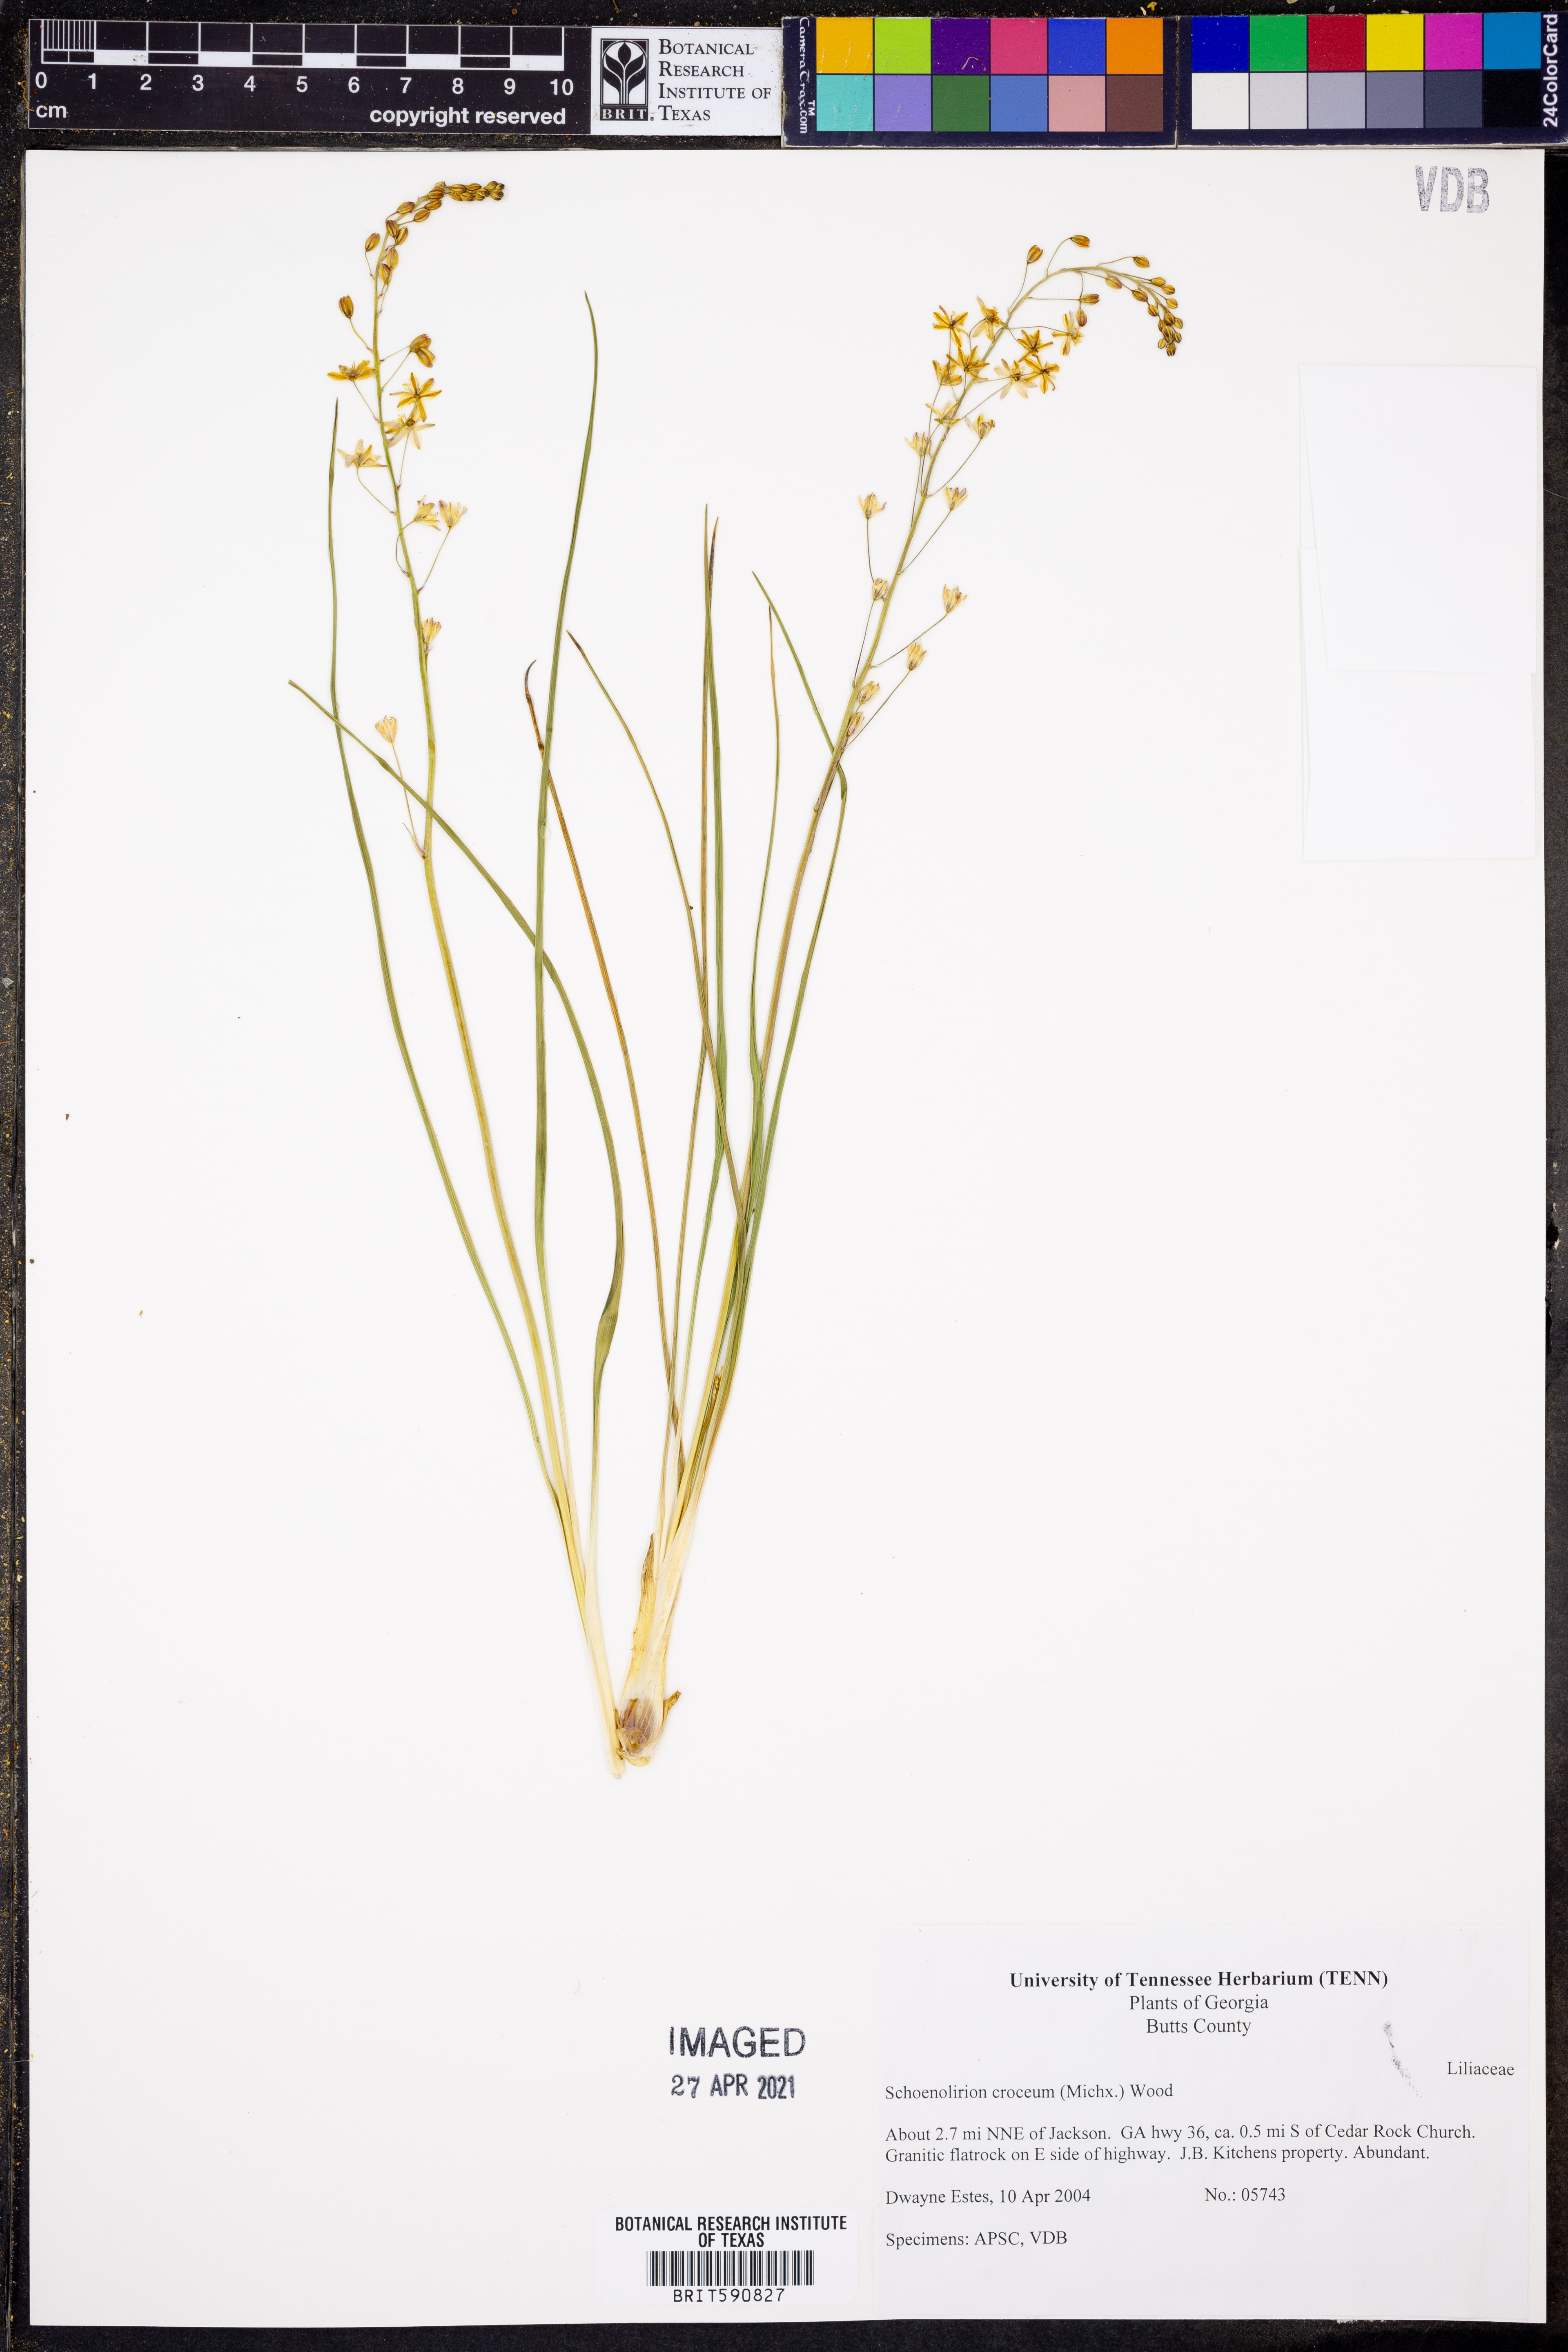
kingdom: Plantae
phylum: Tracheophyta
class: Liliopsida
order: Asparagales
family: Asparagaceae
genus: Schoenolirion
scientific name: Schoenolirion croceum
